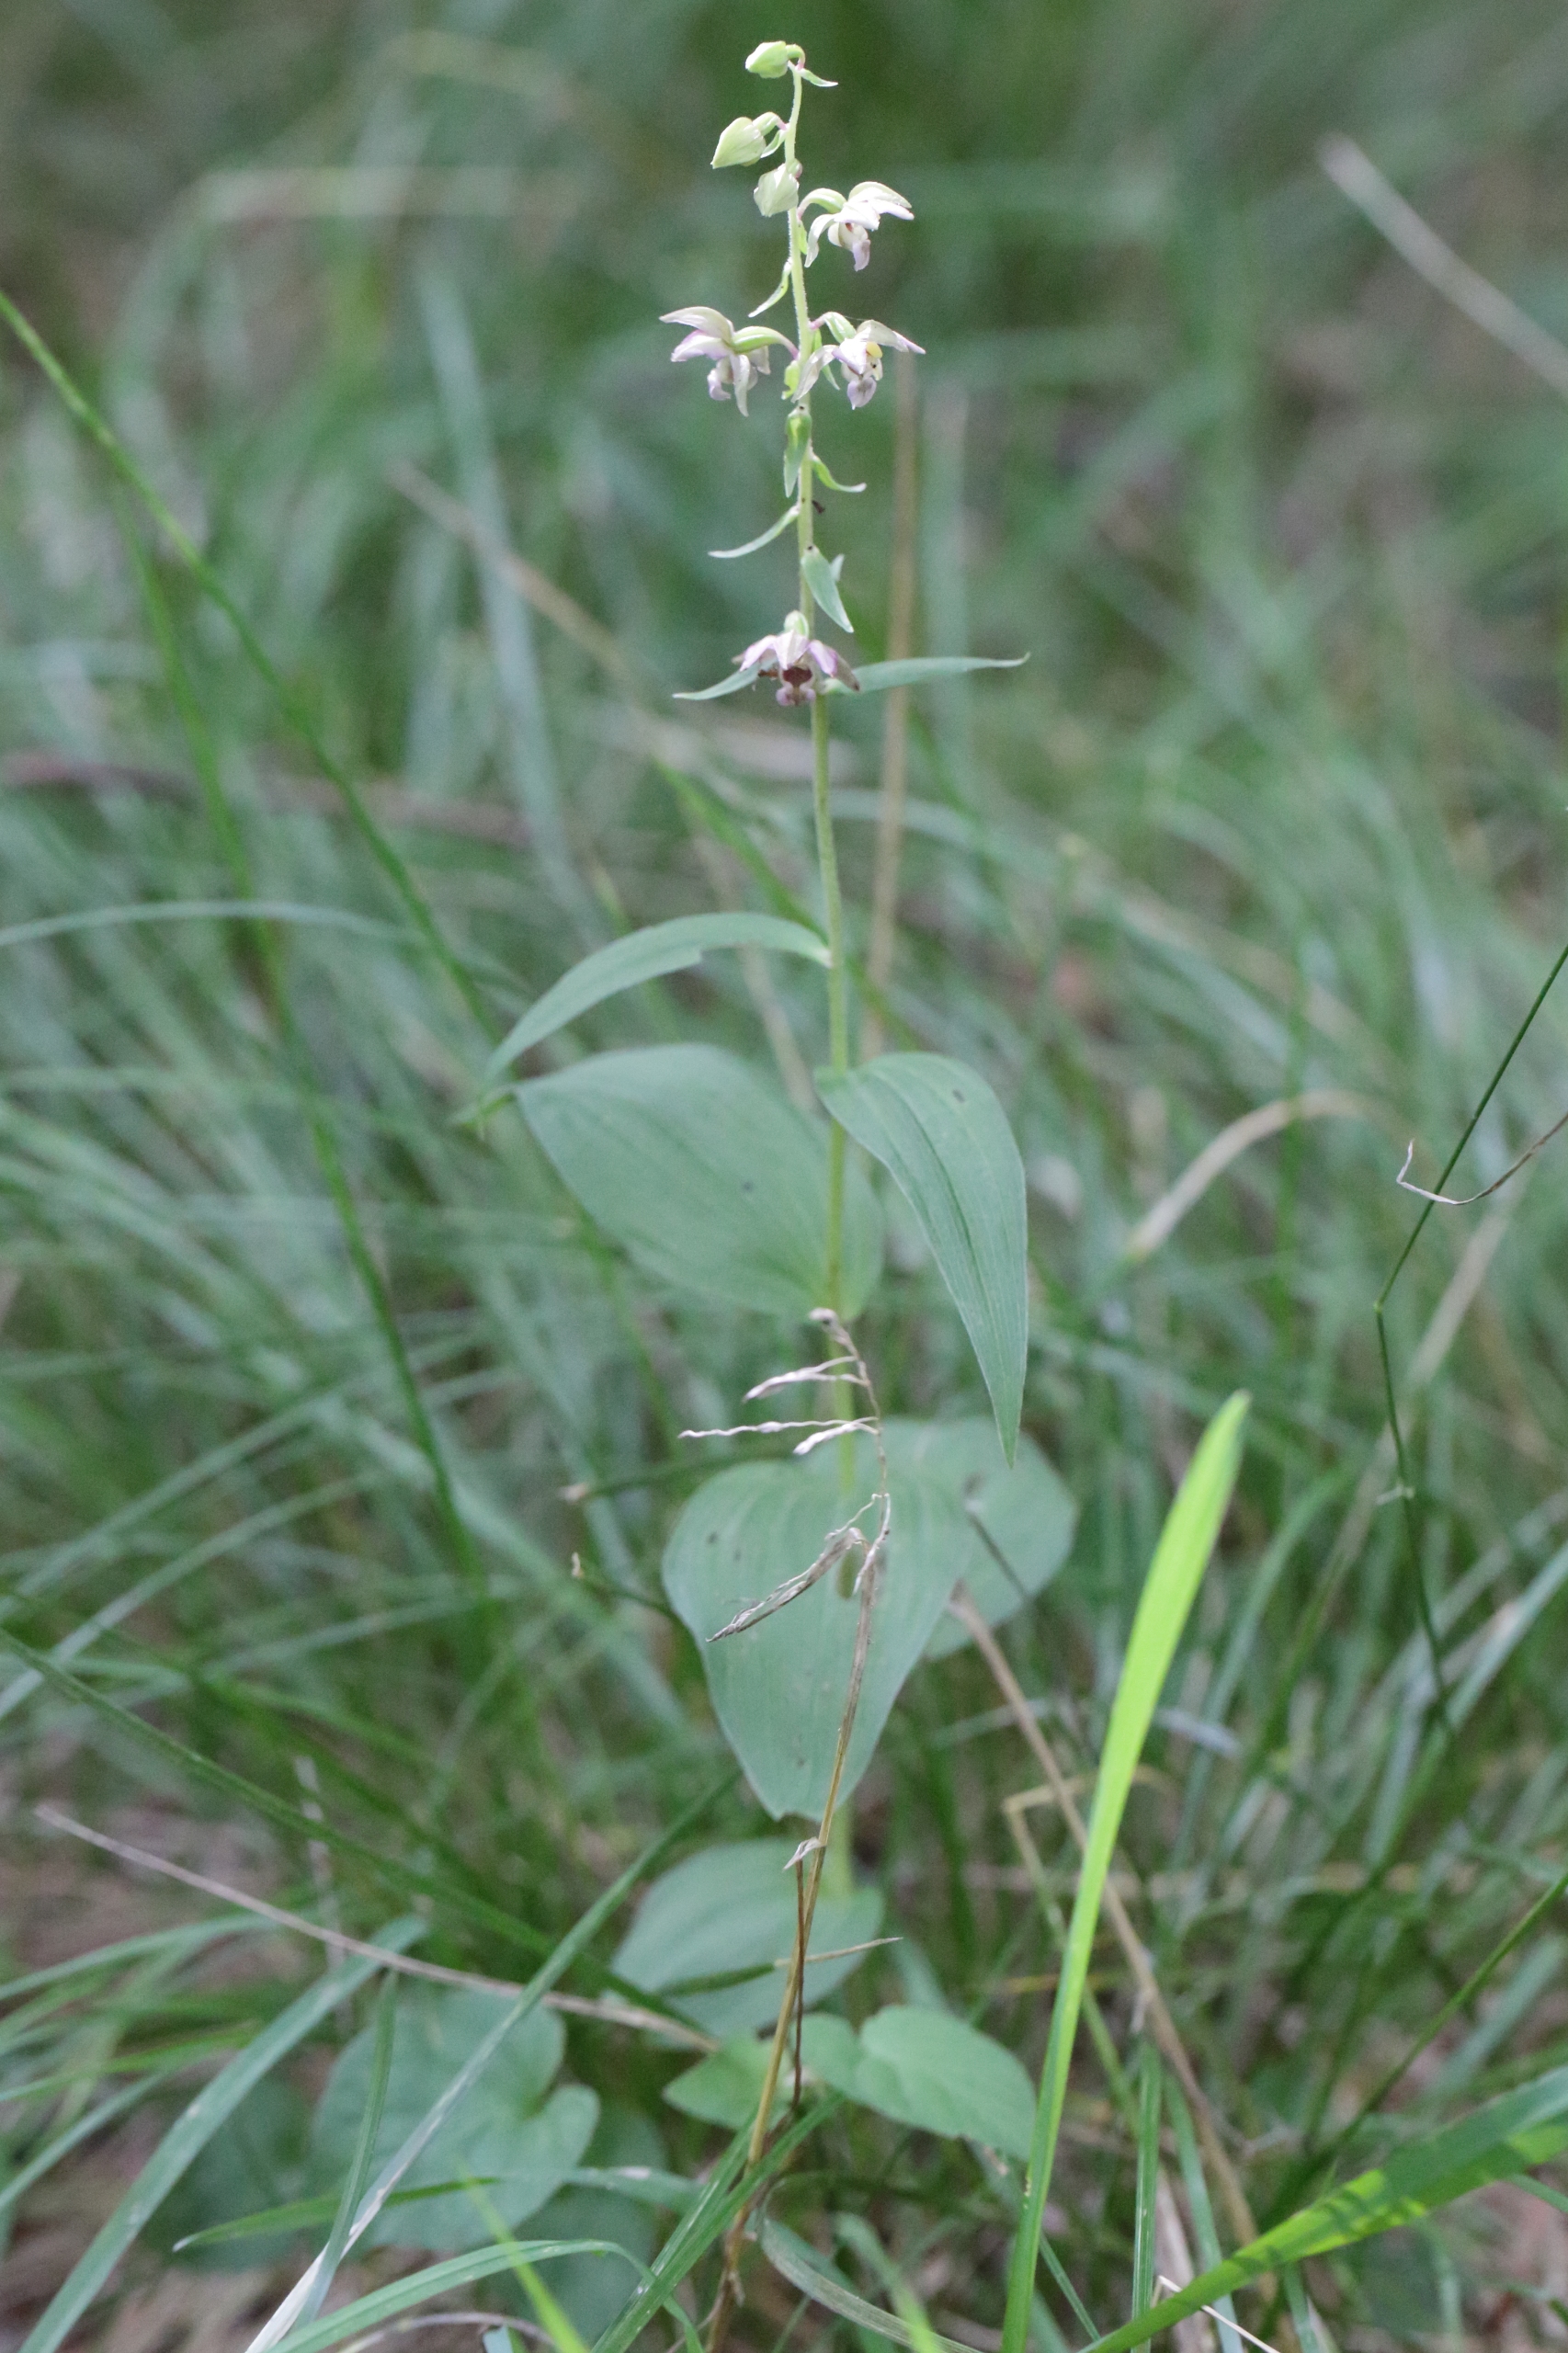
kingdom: Plantae
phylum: Tracheophyta
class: Liliopsida
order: Asparagales
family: Orchidaceae
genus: Epipactis
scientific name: Epipactis helleborine
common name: Skov-hullæbe
